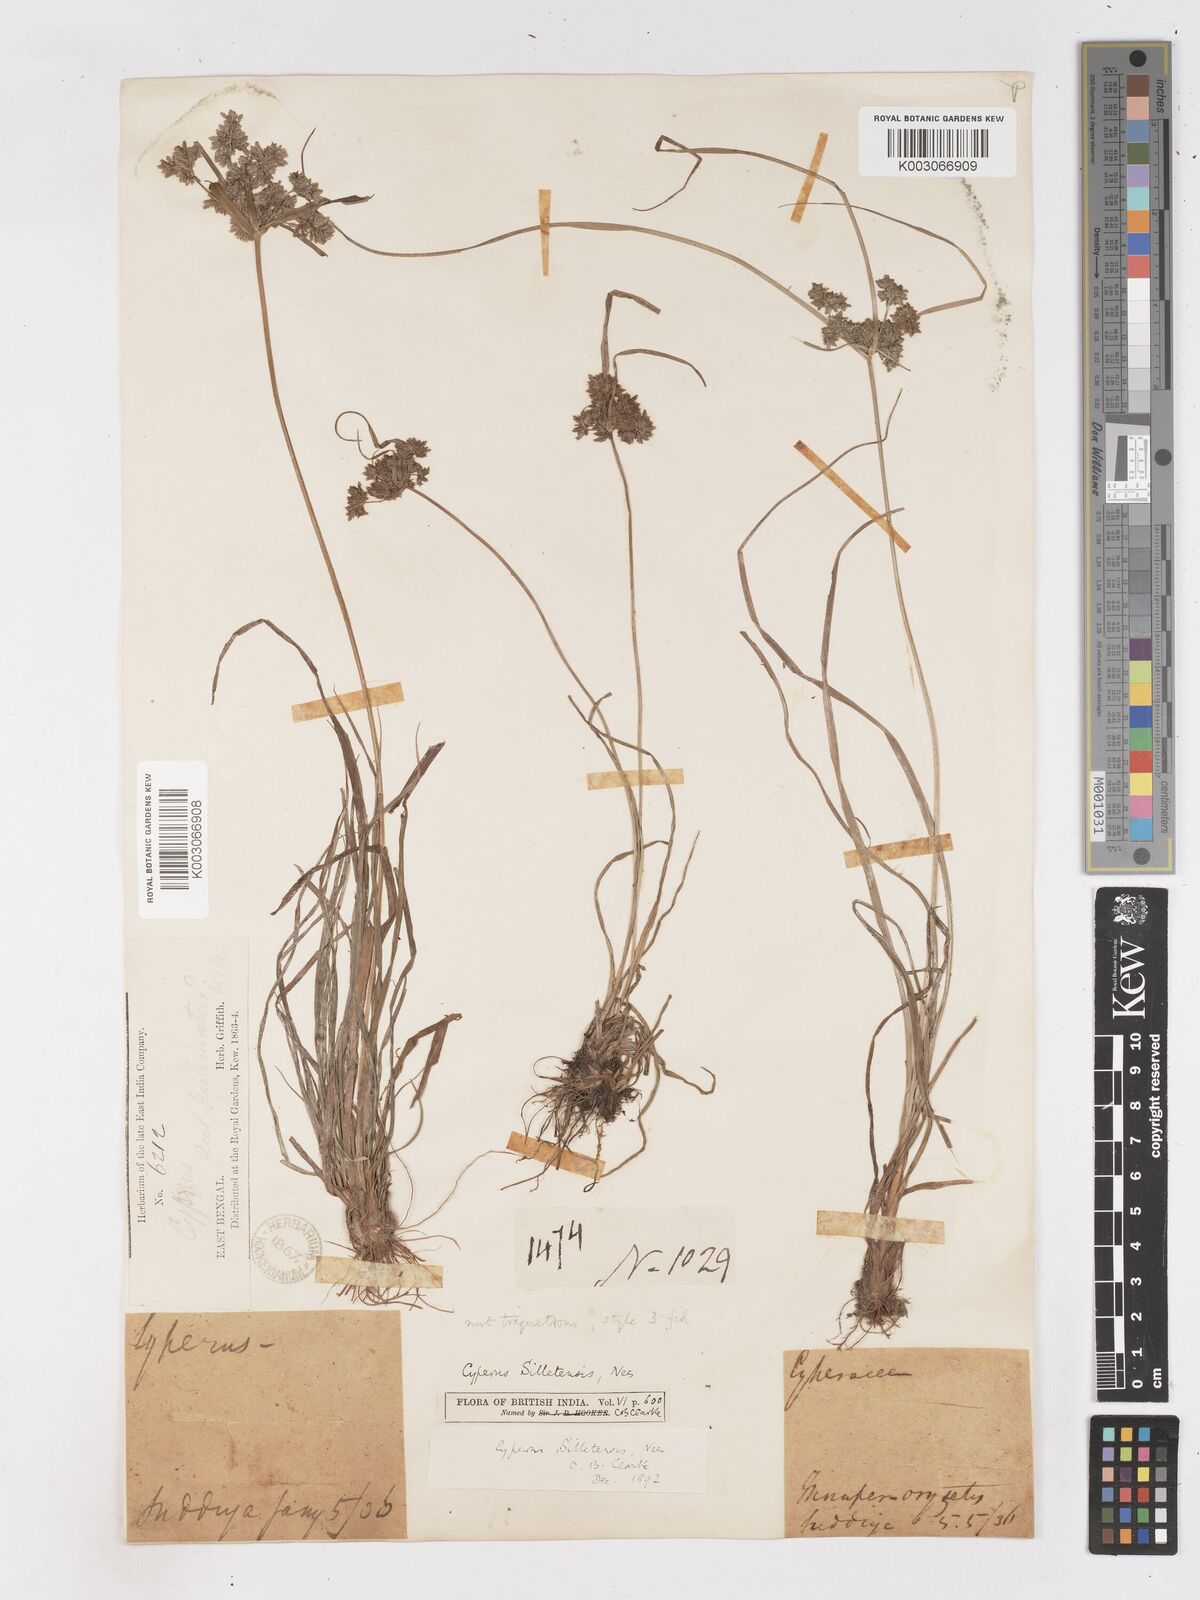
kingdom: Plantae
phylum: Tracheophyta
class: Liliopsida
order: Poales
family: Cyperaceae
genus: Cyperus
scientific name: Cyperus silletensis
